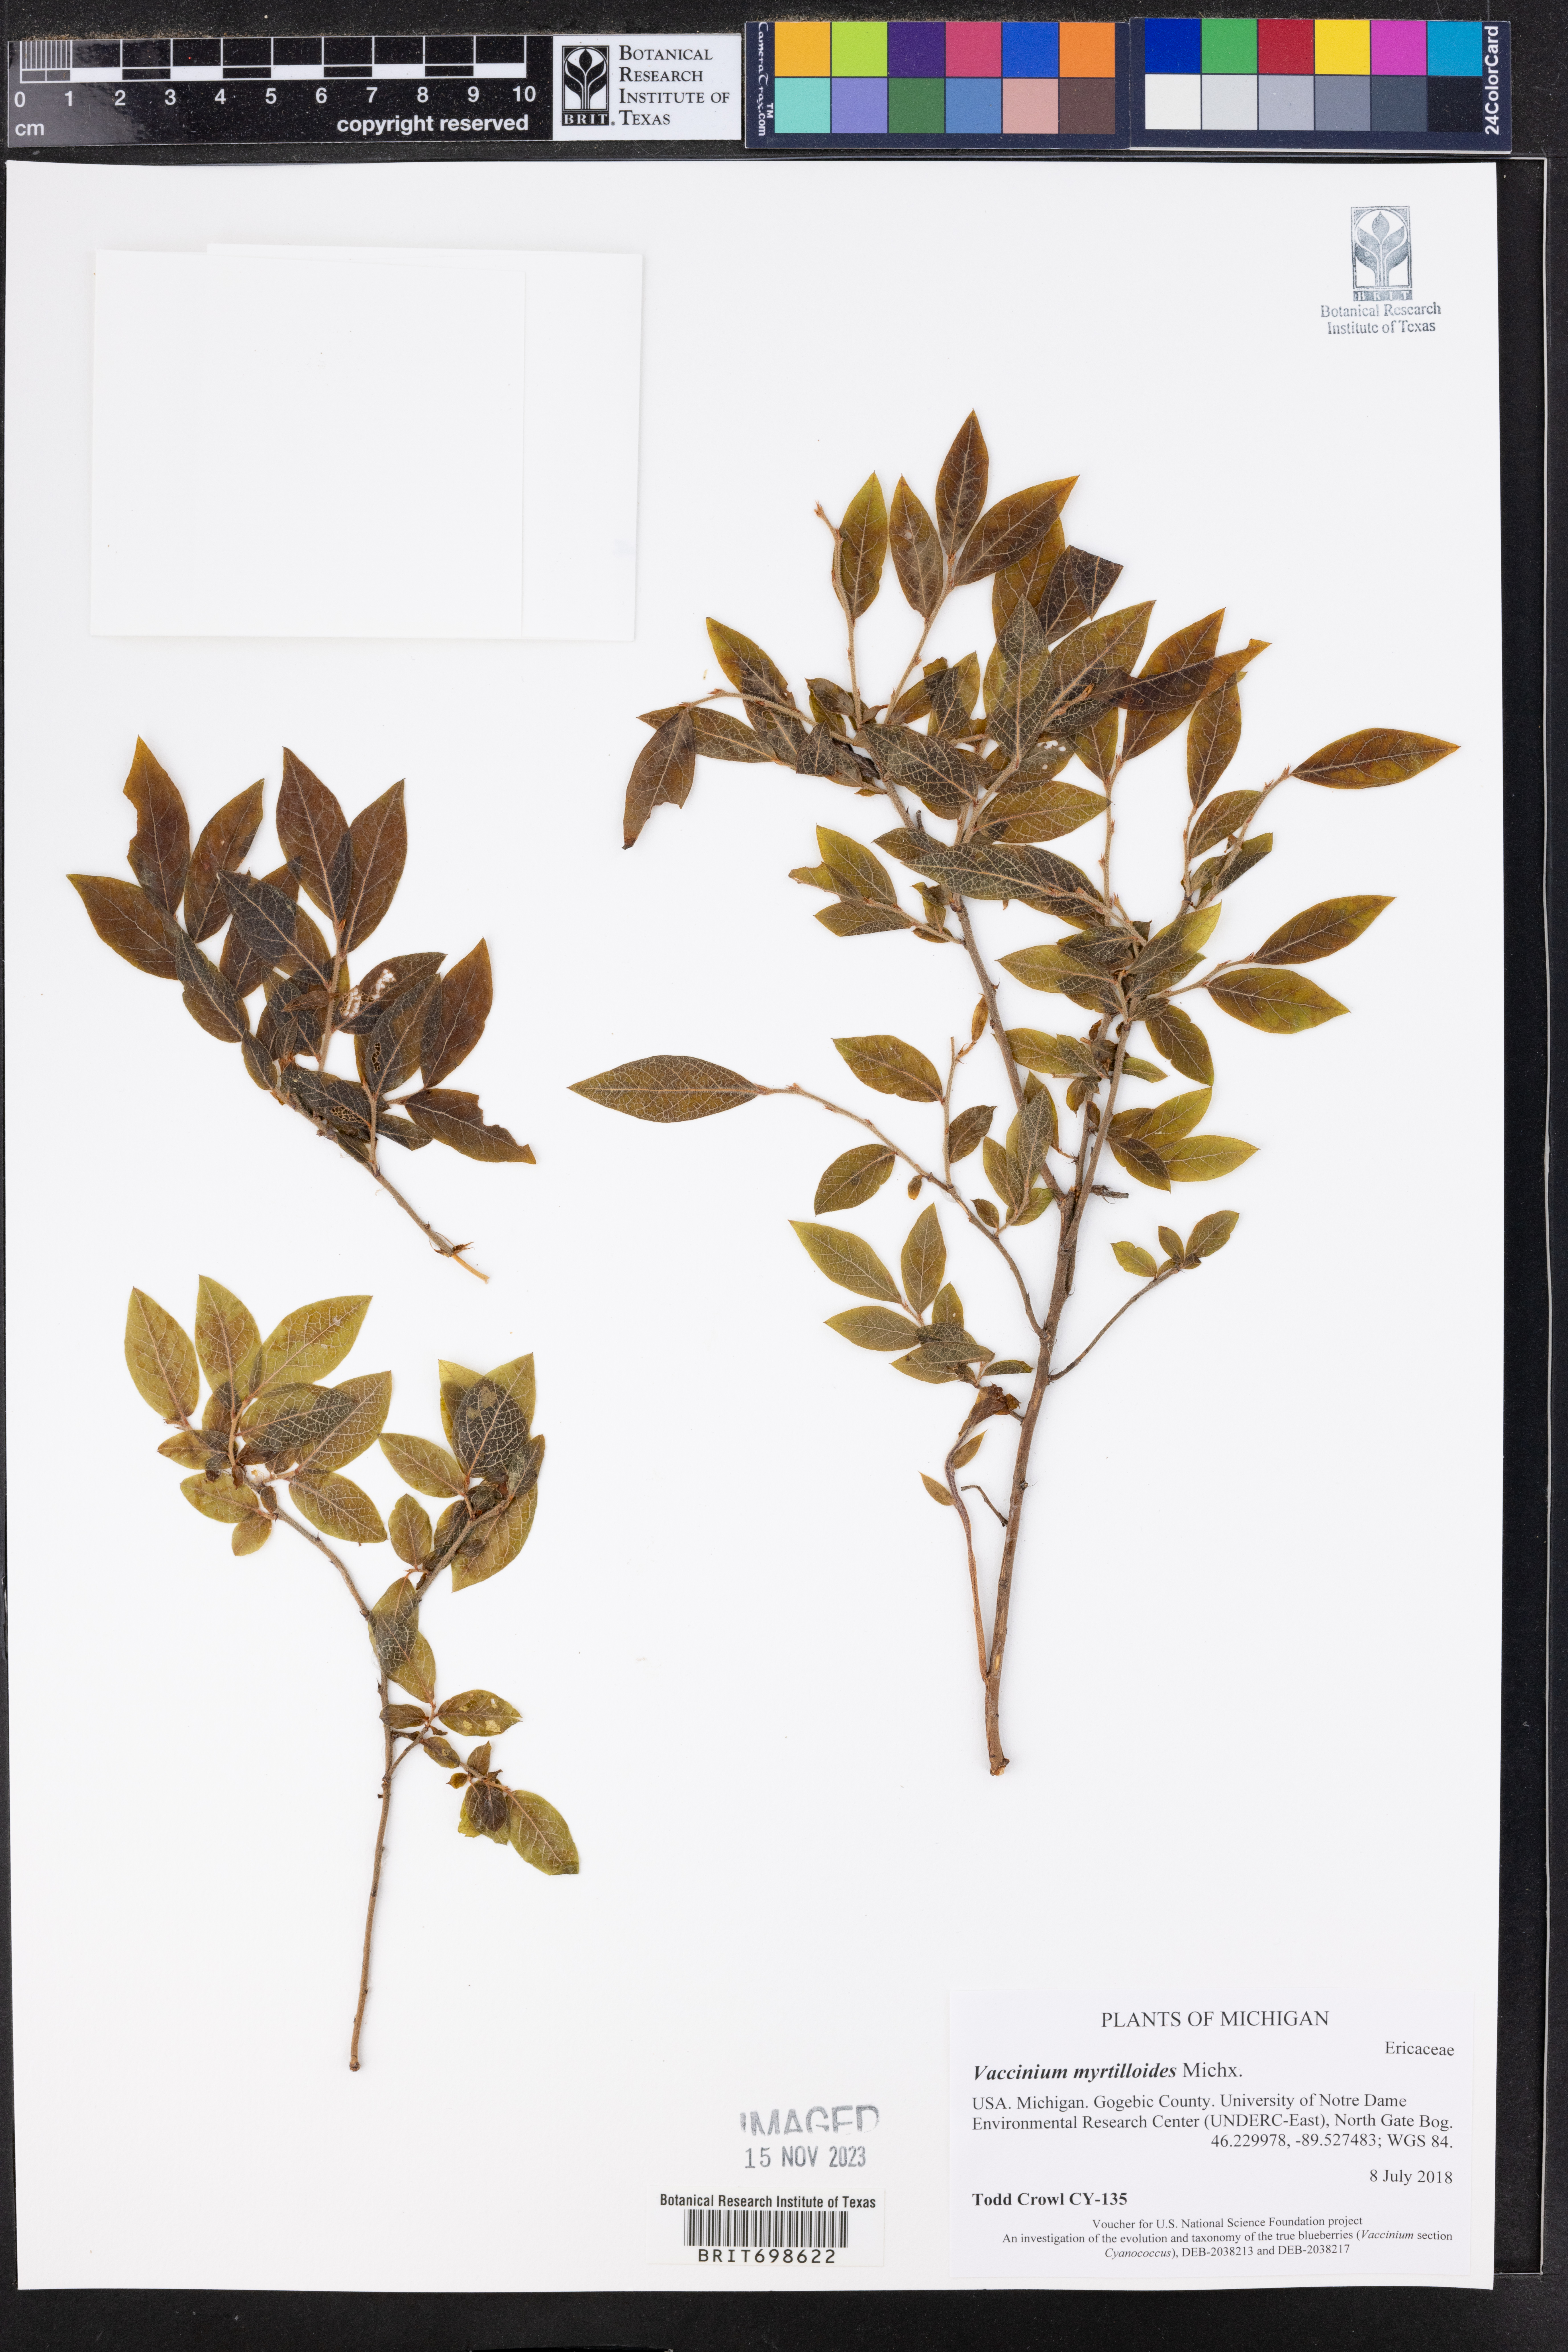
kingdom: Plantae
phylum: Tracheophyta
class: Magnoliopsida
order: Ericales
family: Ericaceae
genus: Vaccinium
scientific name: Vaccinium myrtilloides
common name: Canada blueberry
